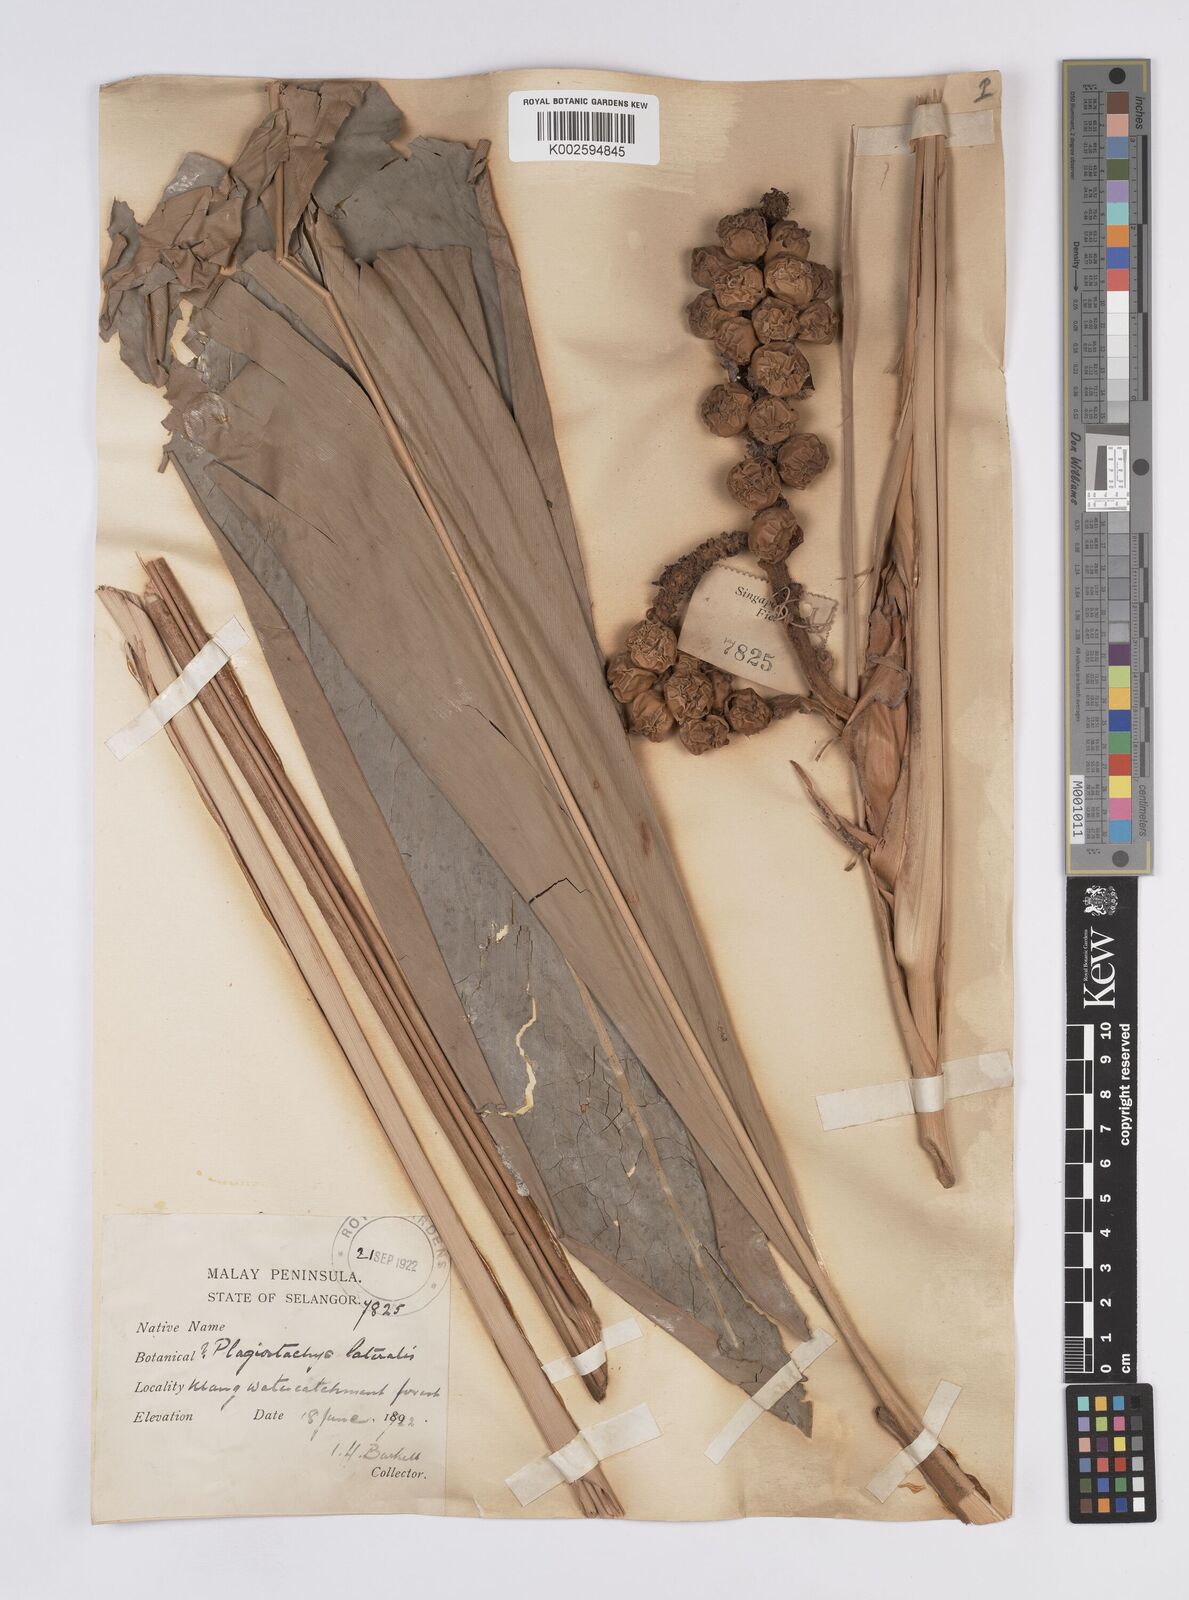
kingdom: Plantae
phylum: Tracheophyta
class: Liliopsida
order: Zingiberales
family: Zingiberaceae
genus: Plagiostachys
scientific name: Plagiostachys albiflora
